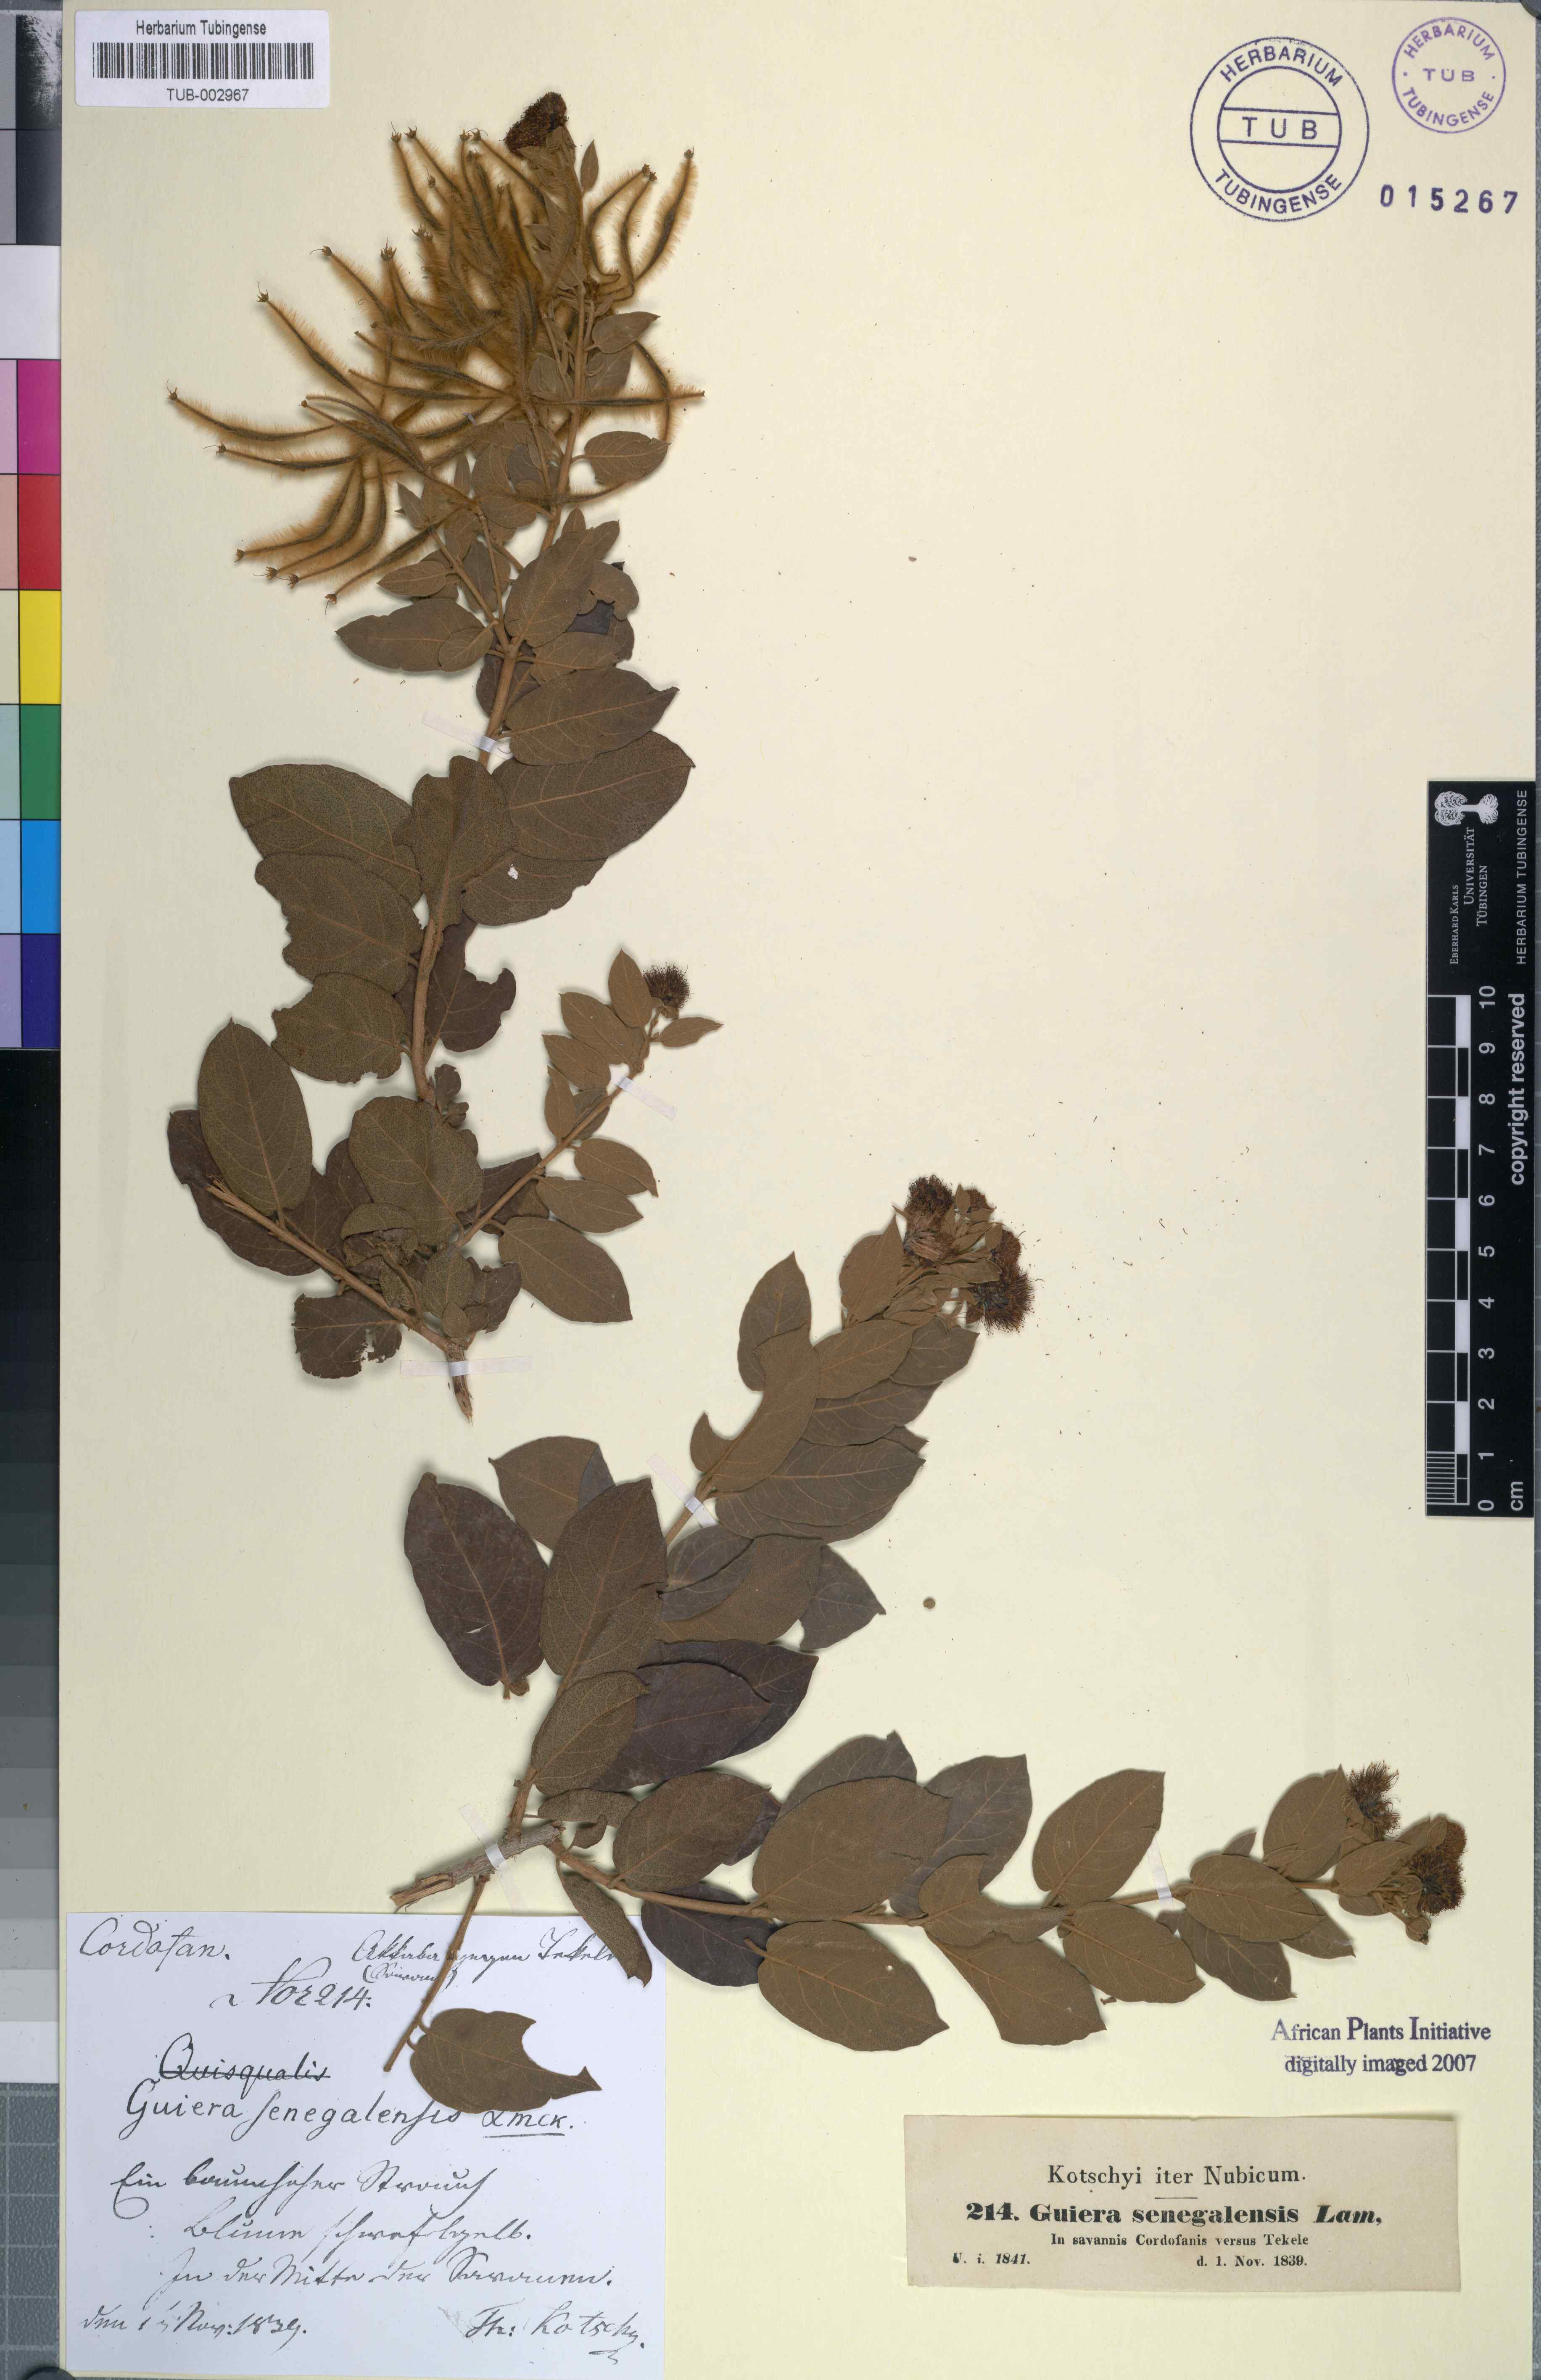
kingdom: Plantae
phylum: Tracheophyta
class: Magnoliopsida
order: Myrtales
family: Combretaceae
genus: Guiera
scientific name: Guiera senegalensis
